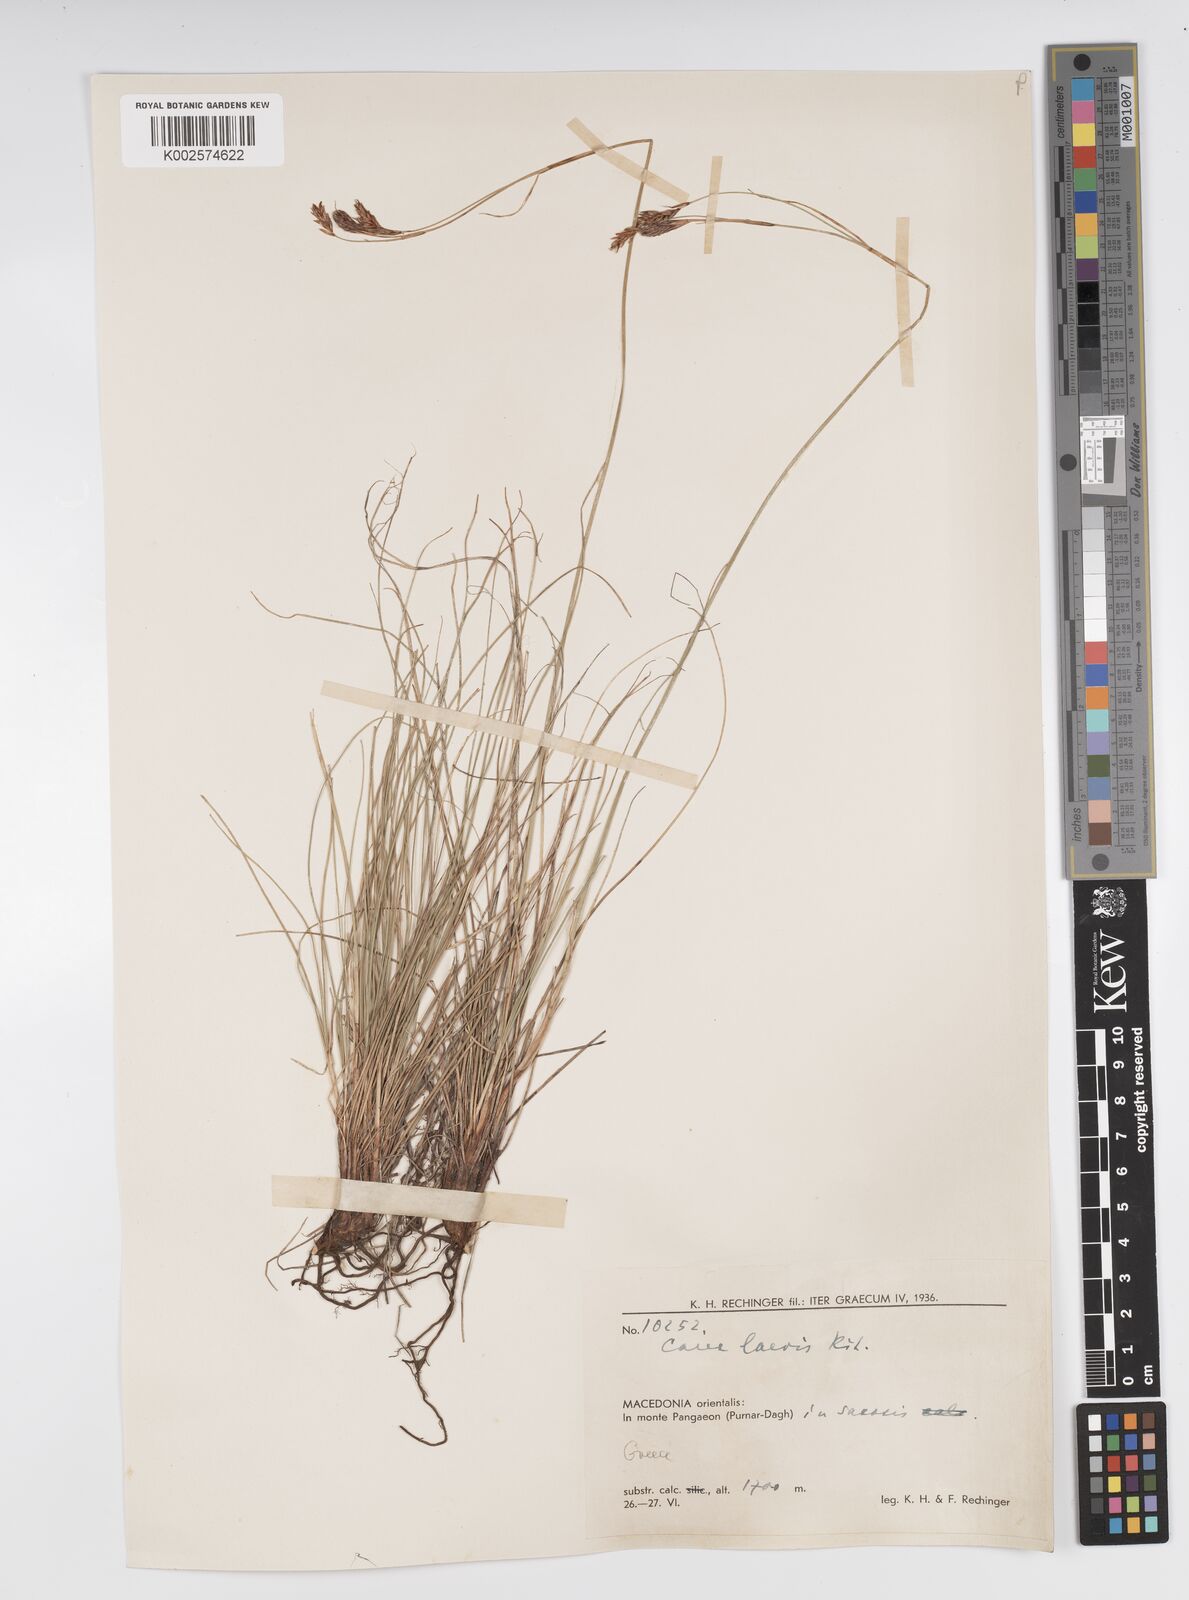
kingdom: Plantae
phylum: Tracheophyta
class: Liliopsida
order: Poales
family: Cyperaceae
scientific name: Cyperaceae
